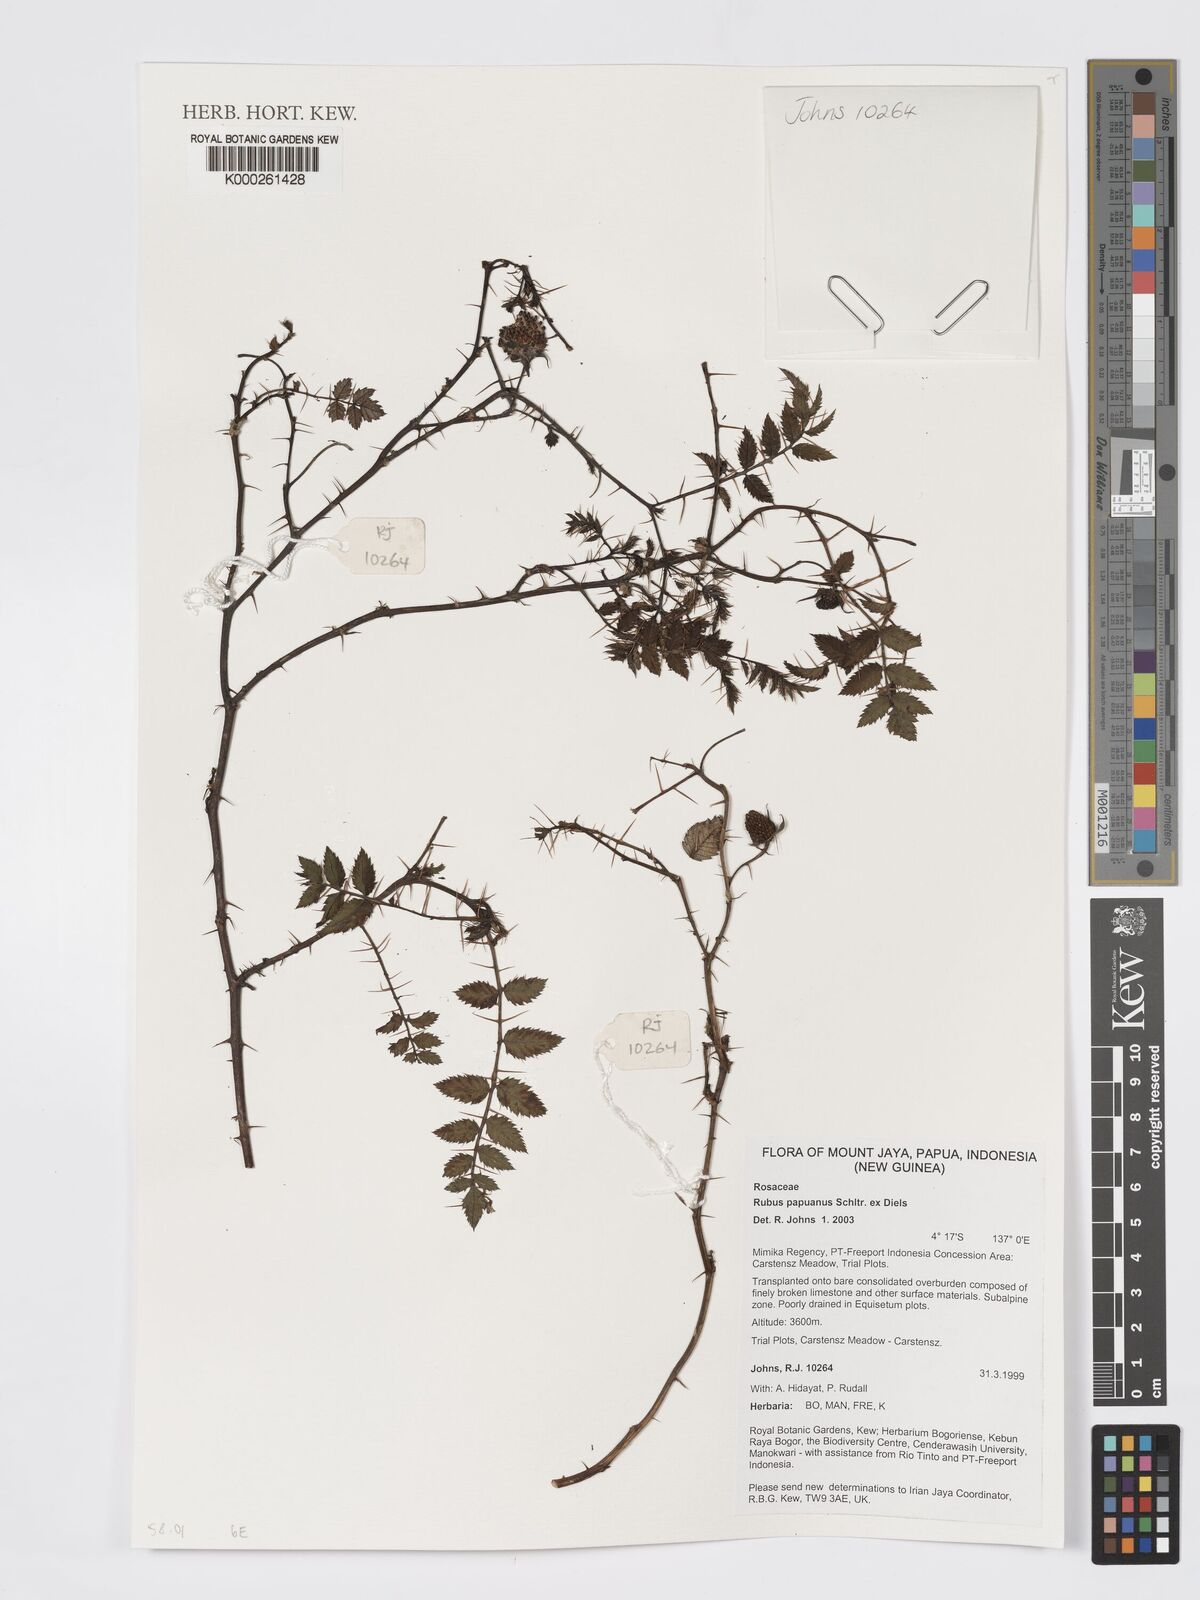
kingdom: Plantae
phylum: Tracheophyta
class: Magnoliopsida
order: Rosales
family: Rosaceae
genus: Rubus
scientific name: Rubus papuanus
